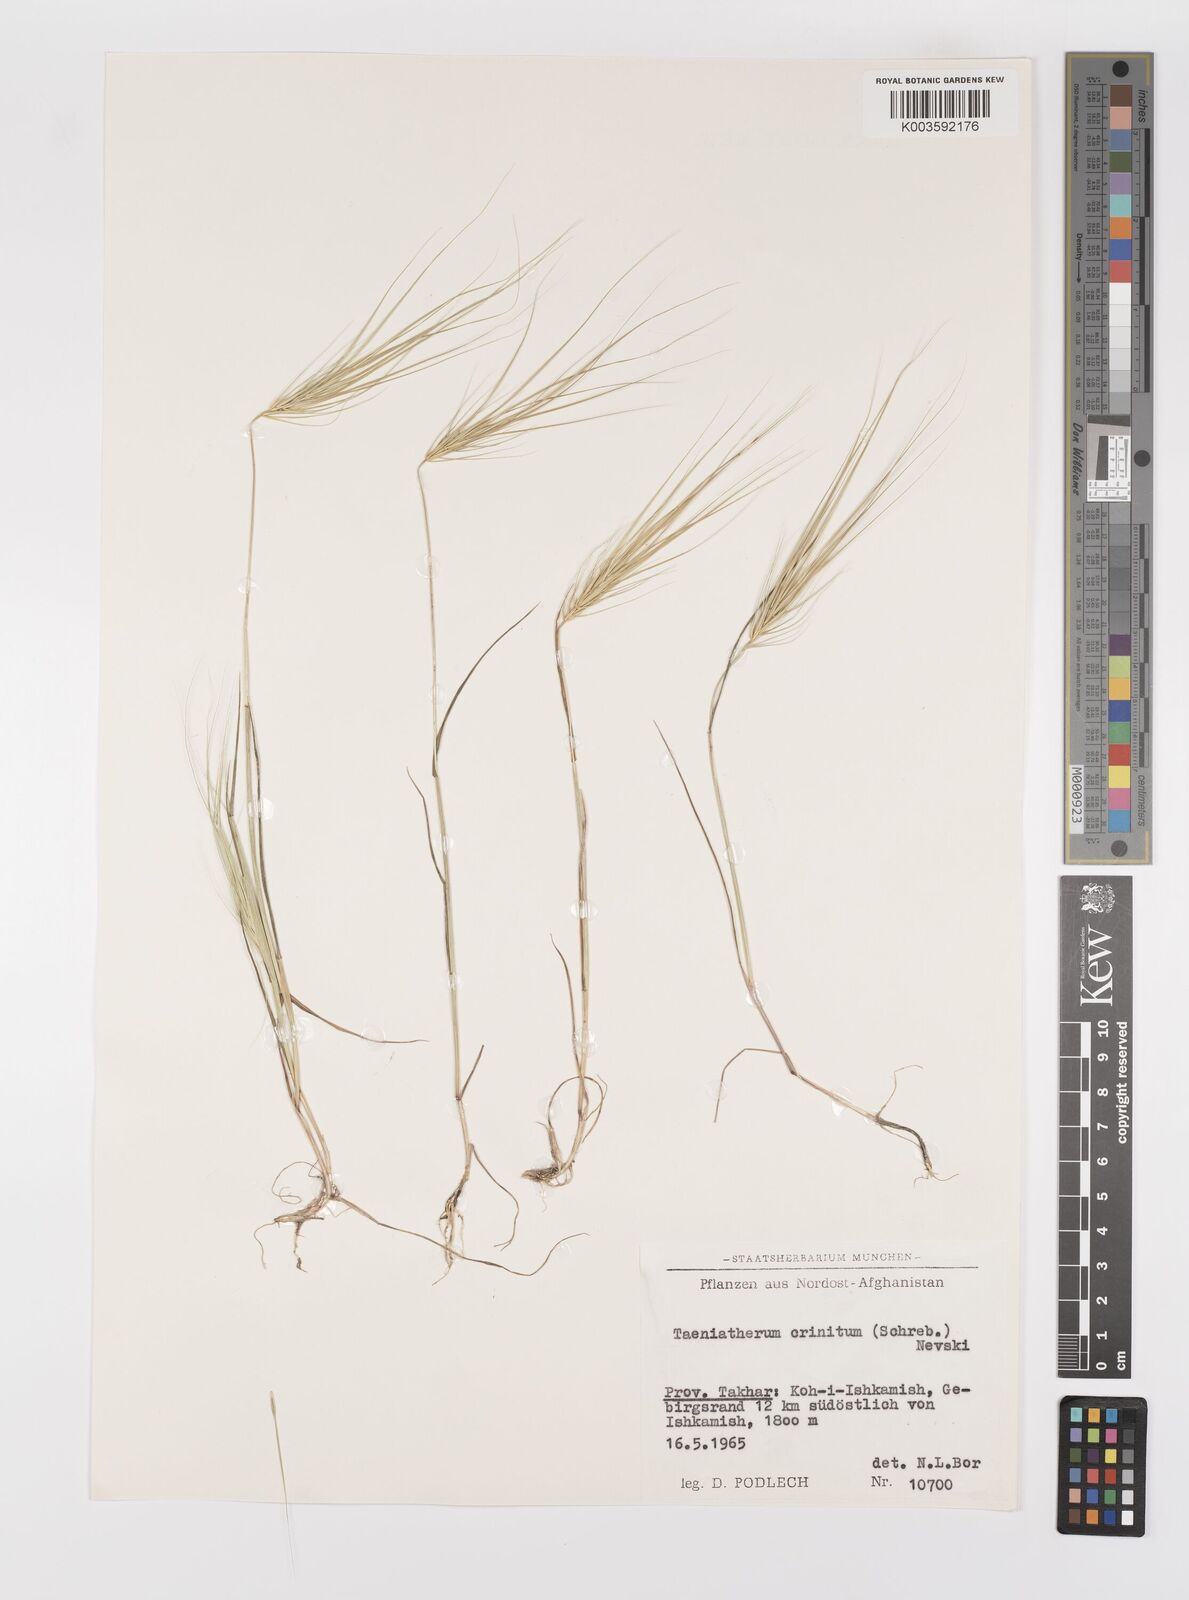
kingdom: Plantae
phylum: Tracheophyta
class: Liliopsida
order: Poales
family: Poaceae
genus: Taeniatherum
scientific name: Taeniatherum caput-medusae
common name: Medusahead
